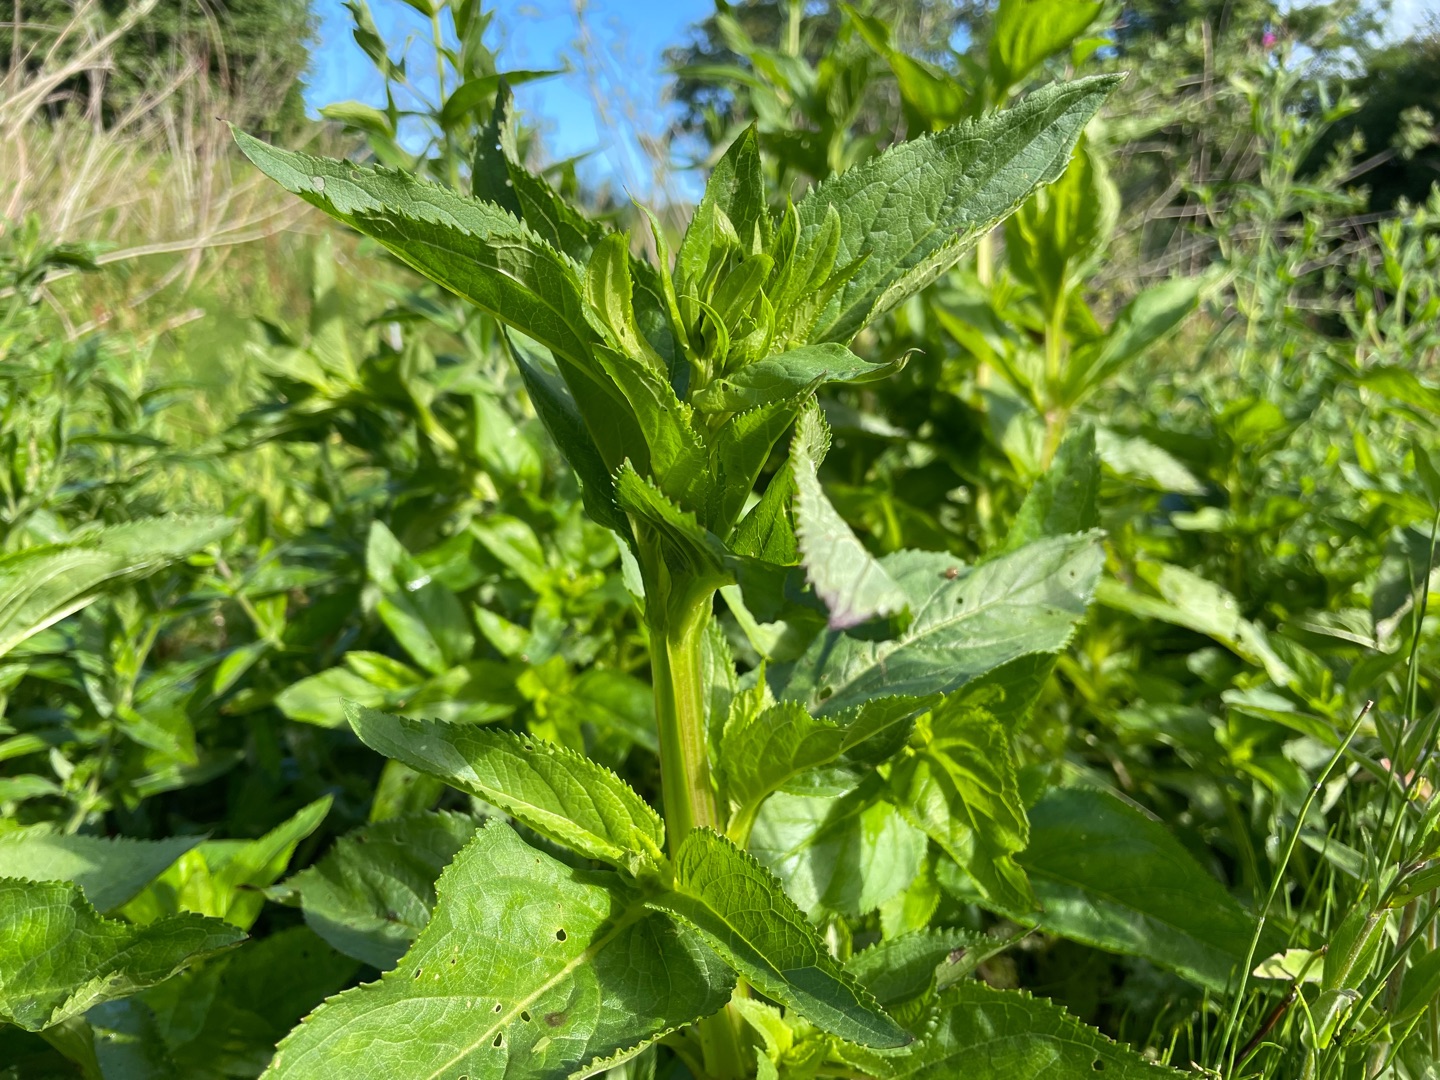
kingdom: Plantae
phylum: Tracheophyta
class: Magnoliopsida
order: Lamiales
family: Scrophulariaceae
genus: Scrophularia
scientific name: Scrophularia umbrosa
